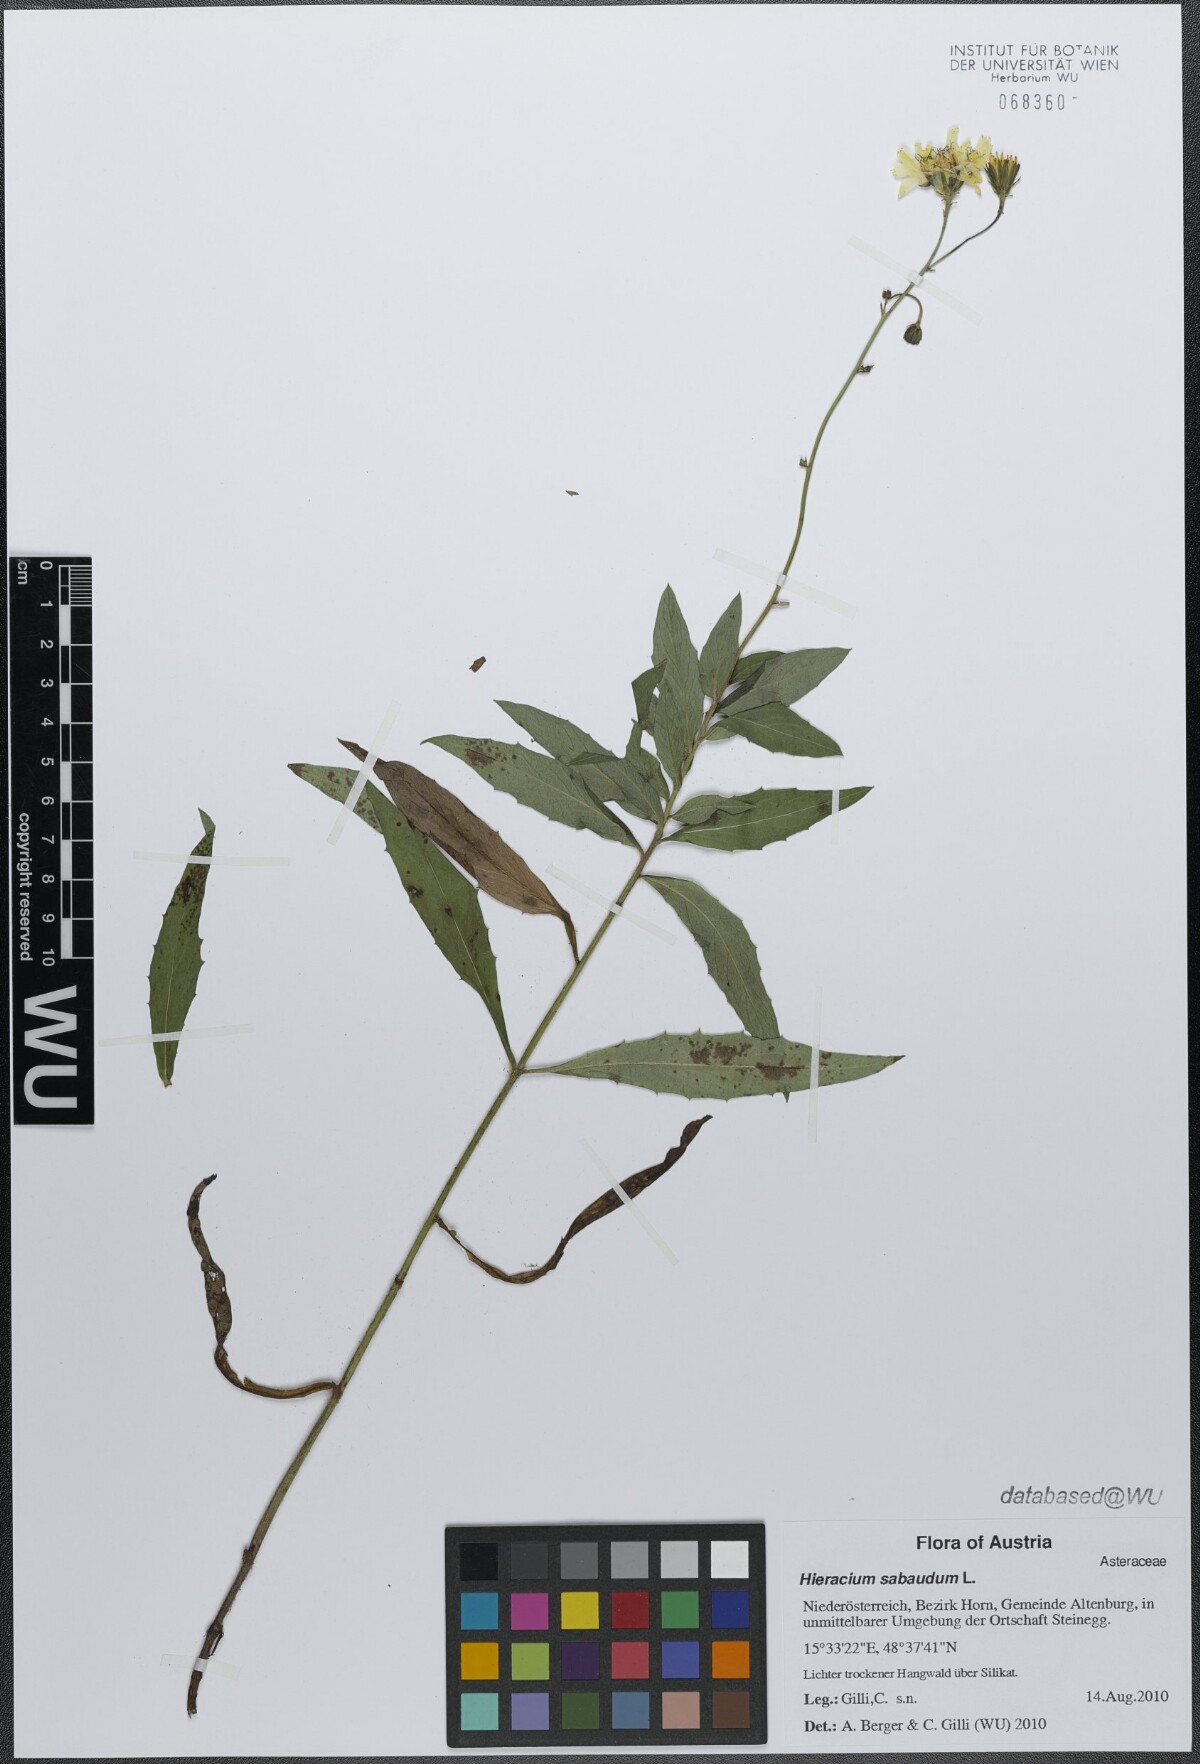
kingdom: Plantae
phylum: Tracheophyta
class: Magnoliopsida
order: Asterales
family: Asteraceae
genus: Hieracium
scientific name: Hieracium sabaudum
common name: New england hawkweed
